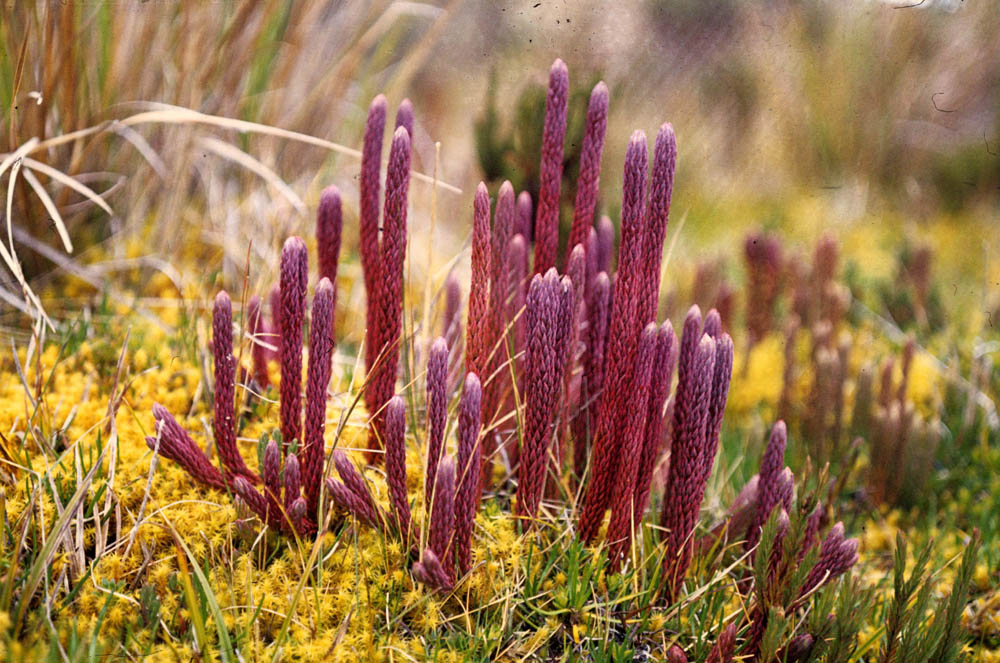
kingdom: Plantae
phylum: Tracheophyta
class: Lycopodiopsida
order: Lycopodiales
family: Lycopodiaceae
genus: Phlegmariurus
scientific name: Phlegmariurus crassus
